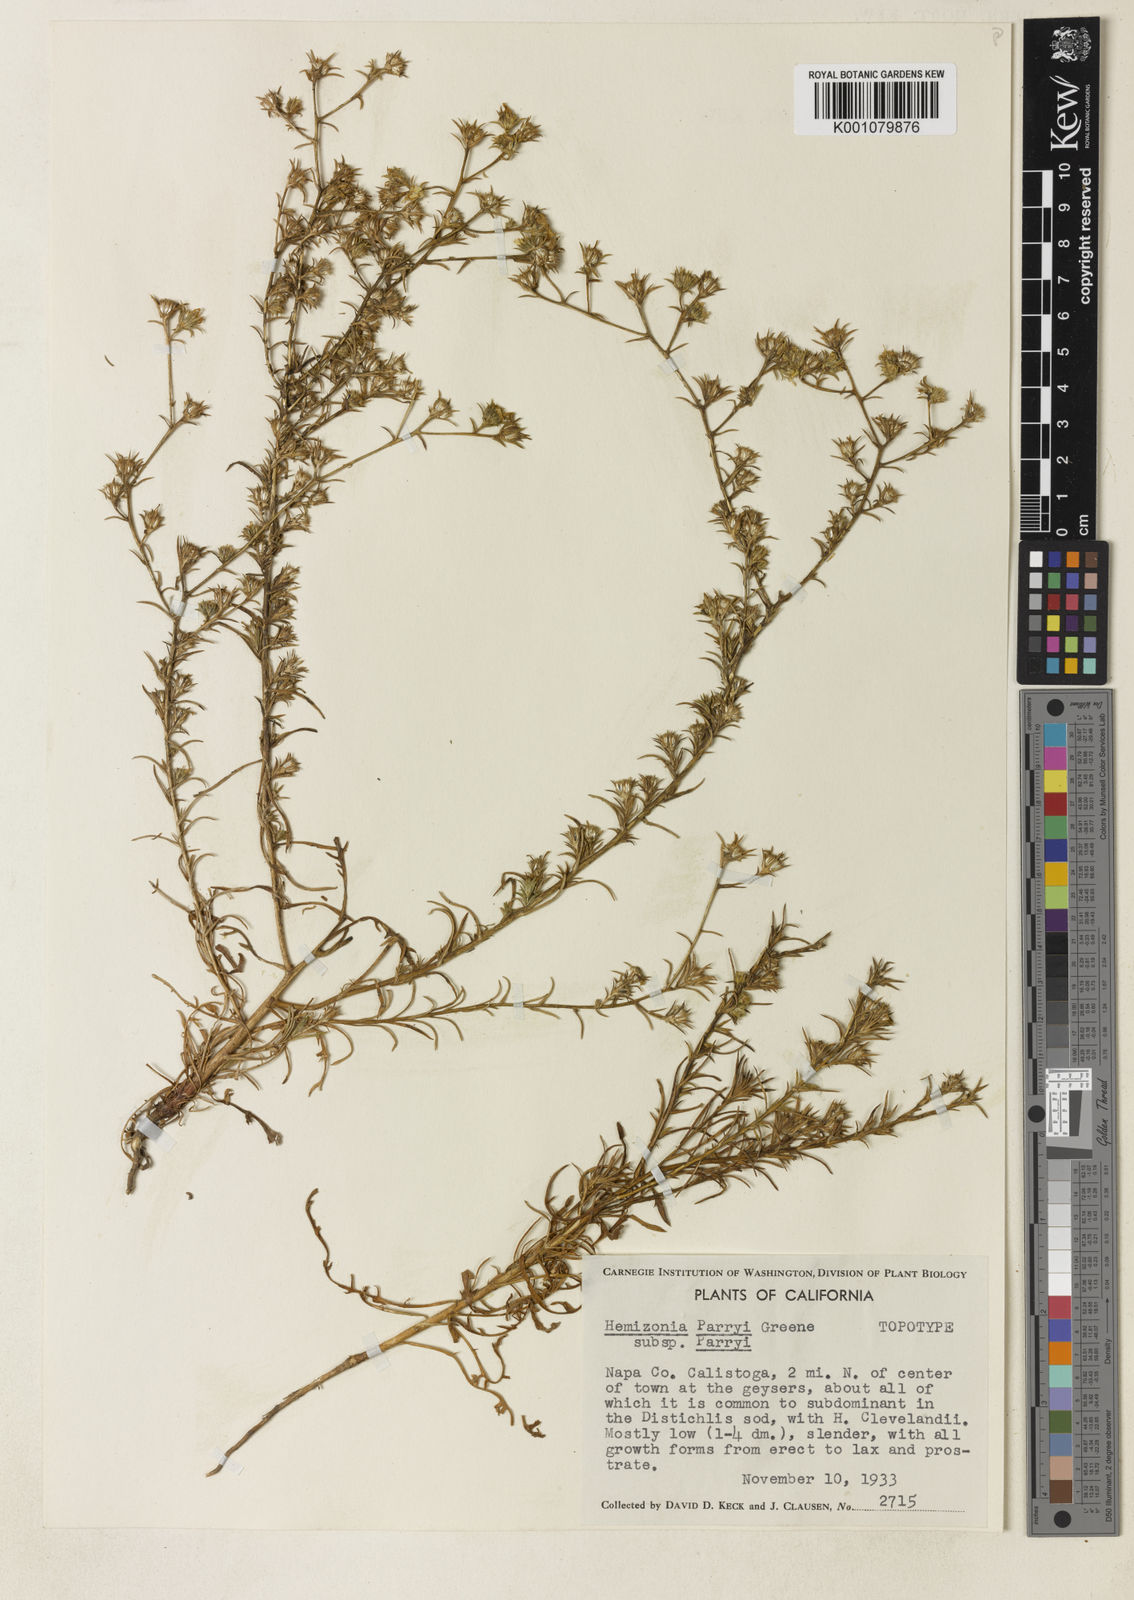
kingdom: Plantae
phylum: Tracheophyta
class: Magnoliopsida
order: Asterales
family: Asteraceae
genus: Centromadia
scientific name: Centromadia parryi
